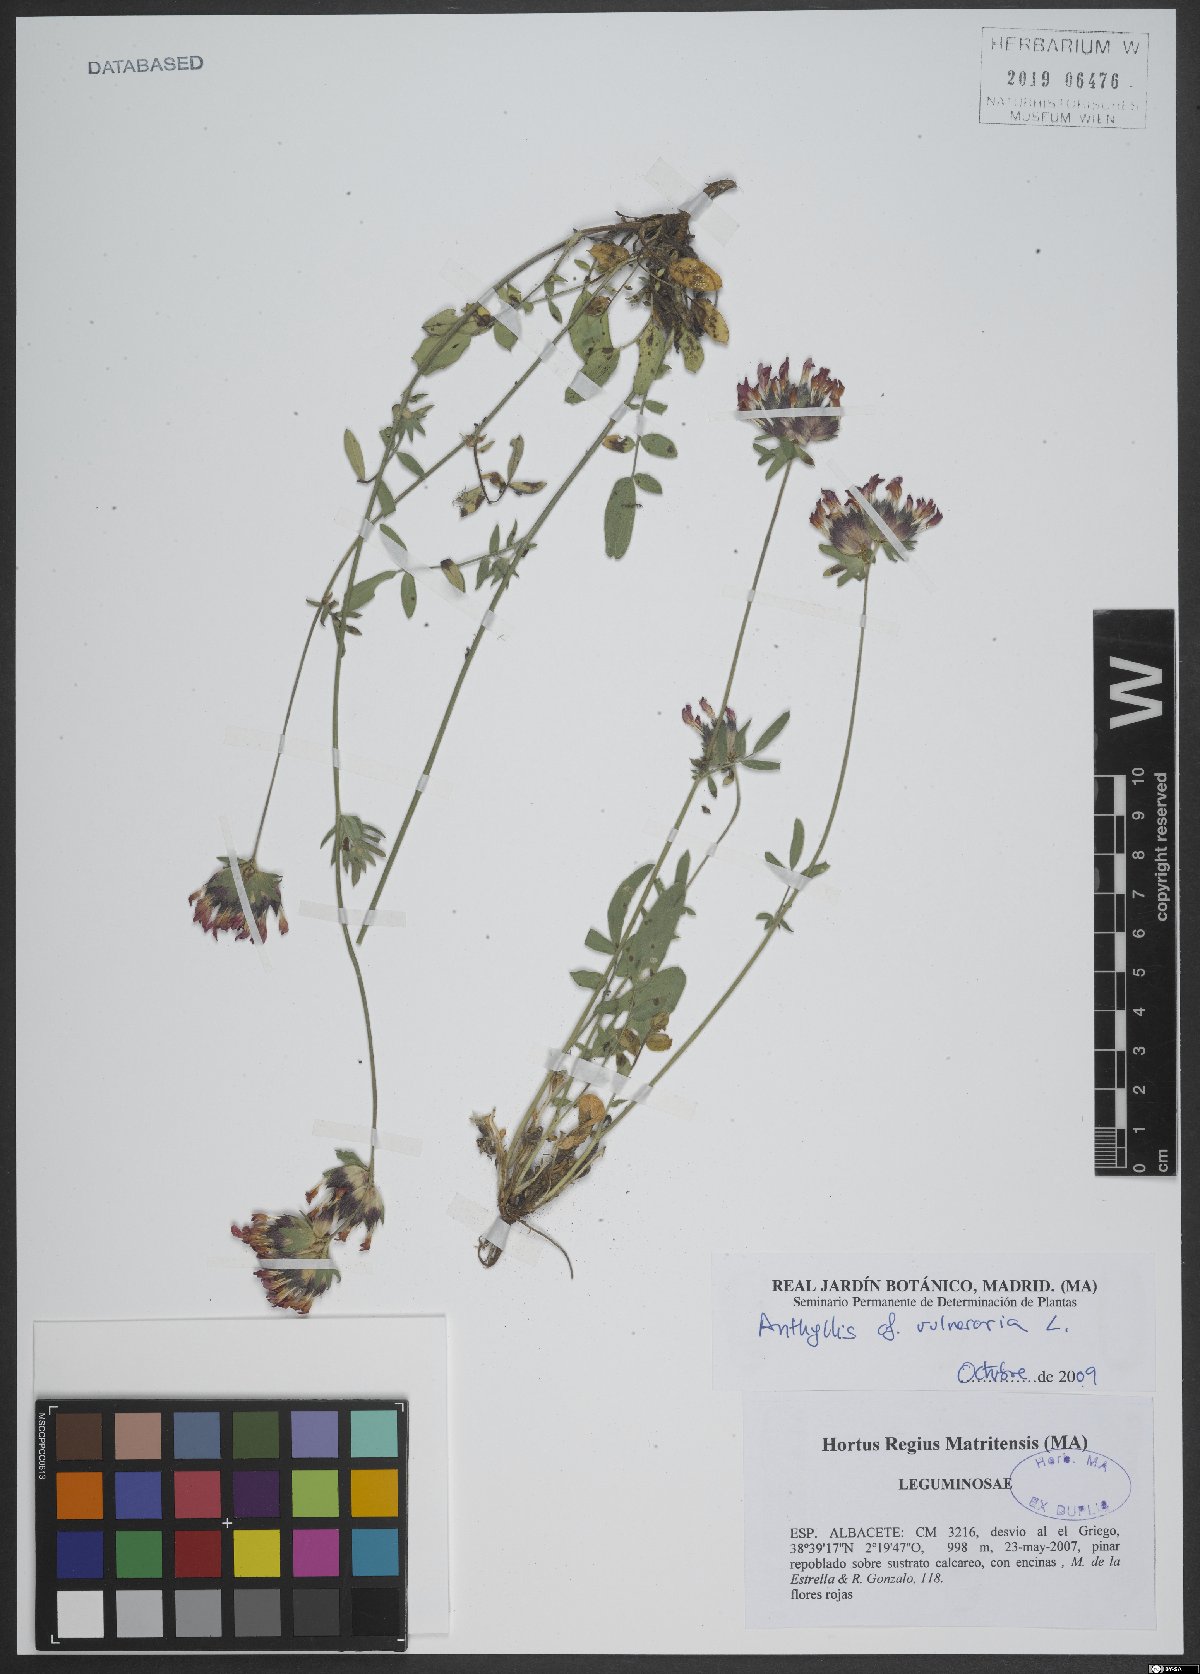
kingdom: Plantae
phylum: Tracheophyta
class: Magnoliopsida
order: Fabales
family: Fabaceae
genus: Anthyllis
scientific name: Anthyllis vulneraria
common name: Kidney vetch
